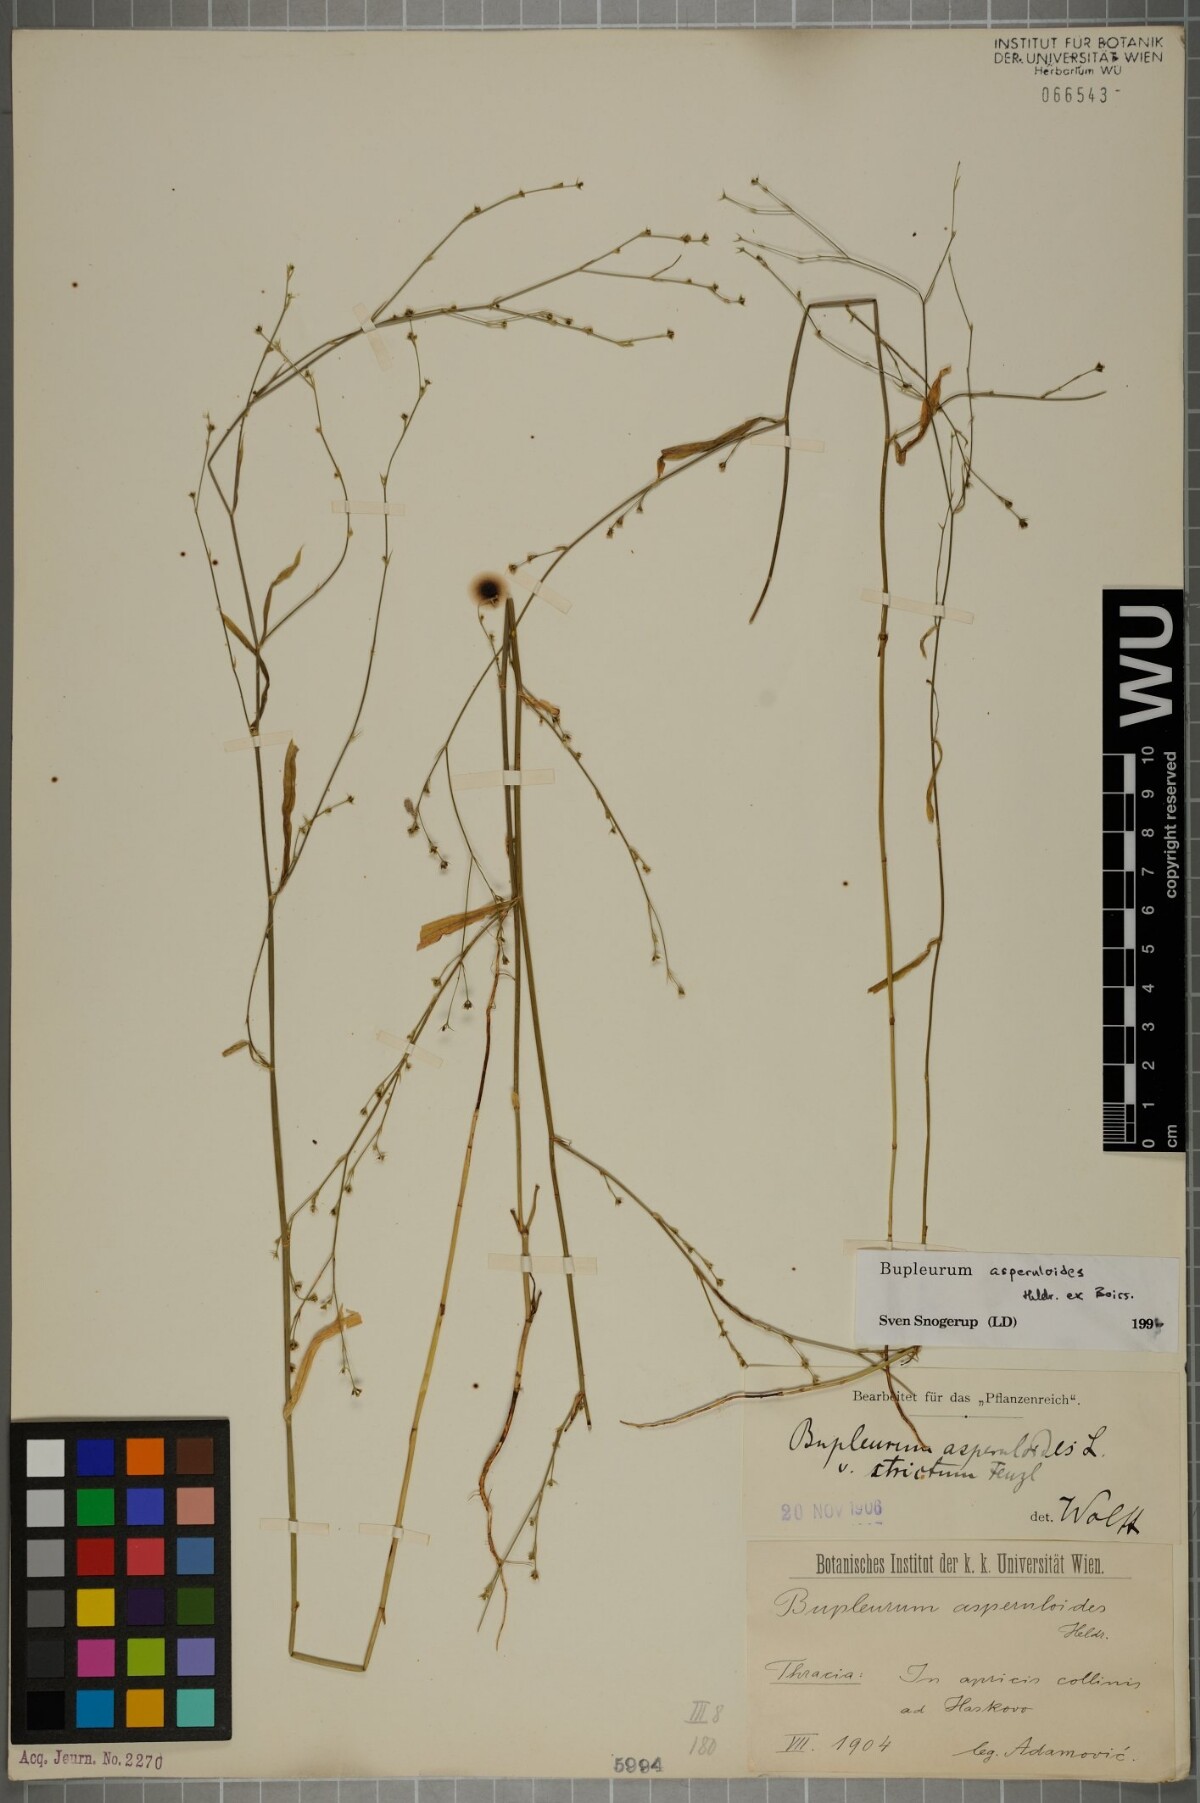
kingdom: Plantae
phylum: Tracheophyta
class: Magnoliopsida
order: Apiales
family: Apiaceae
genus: Bupleurum
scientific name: Bupleurum asperuloides
